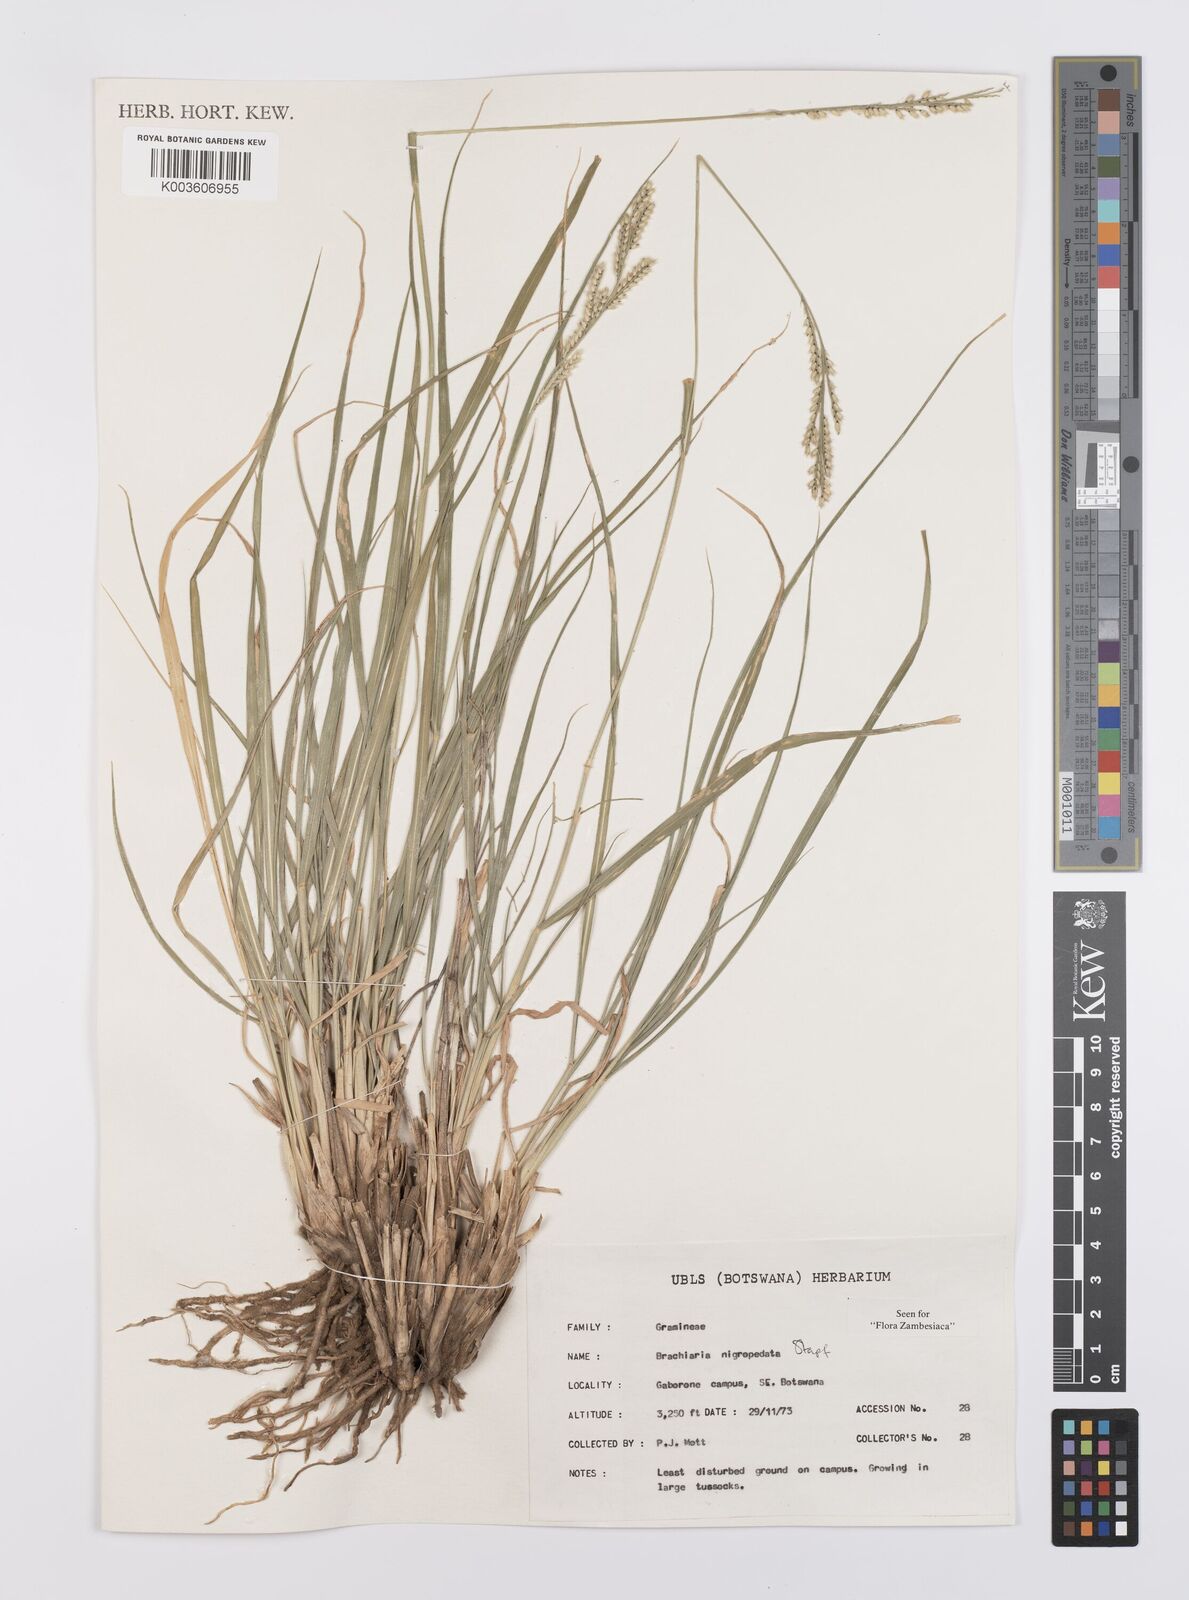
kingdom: Plantae
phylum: Tracheophyta
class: Liliopsida
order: Poales
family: Poaceae
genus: Urochloa
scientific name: Urochloa nigropedata
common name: Spotted signal grass
